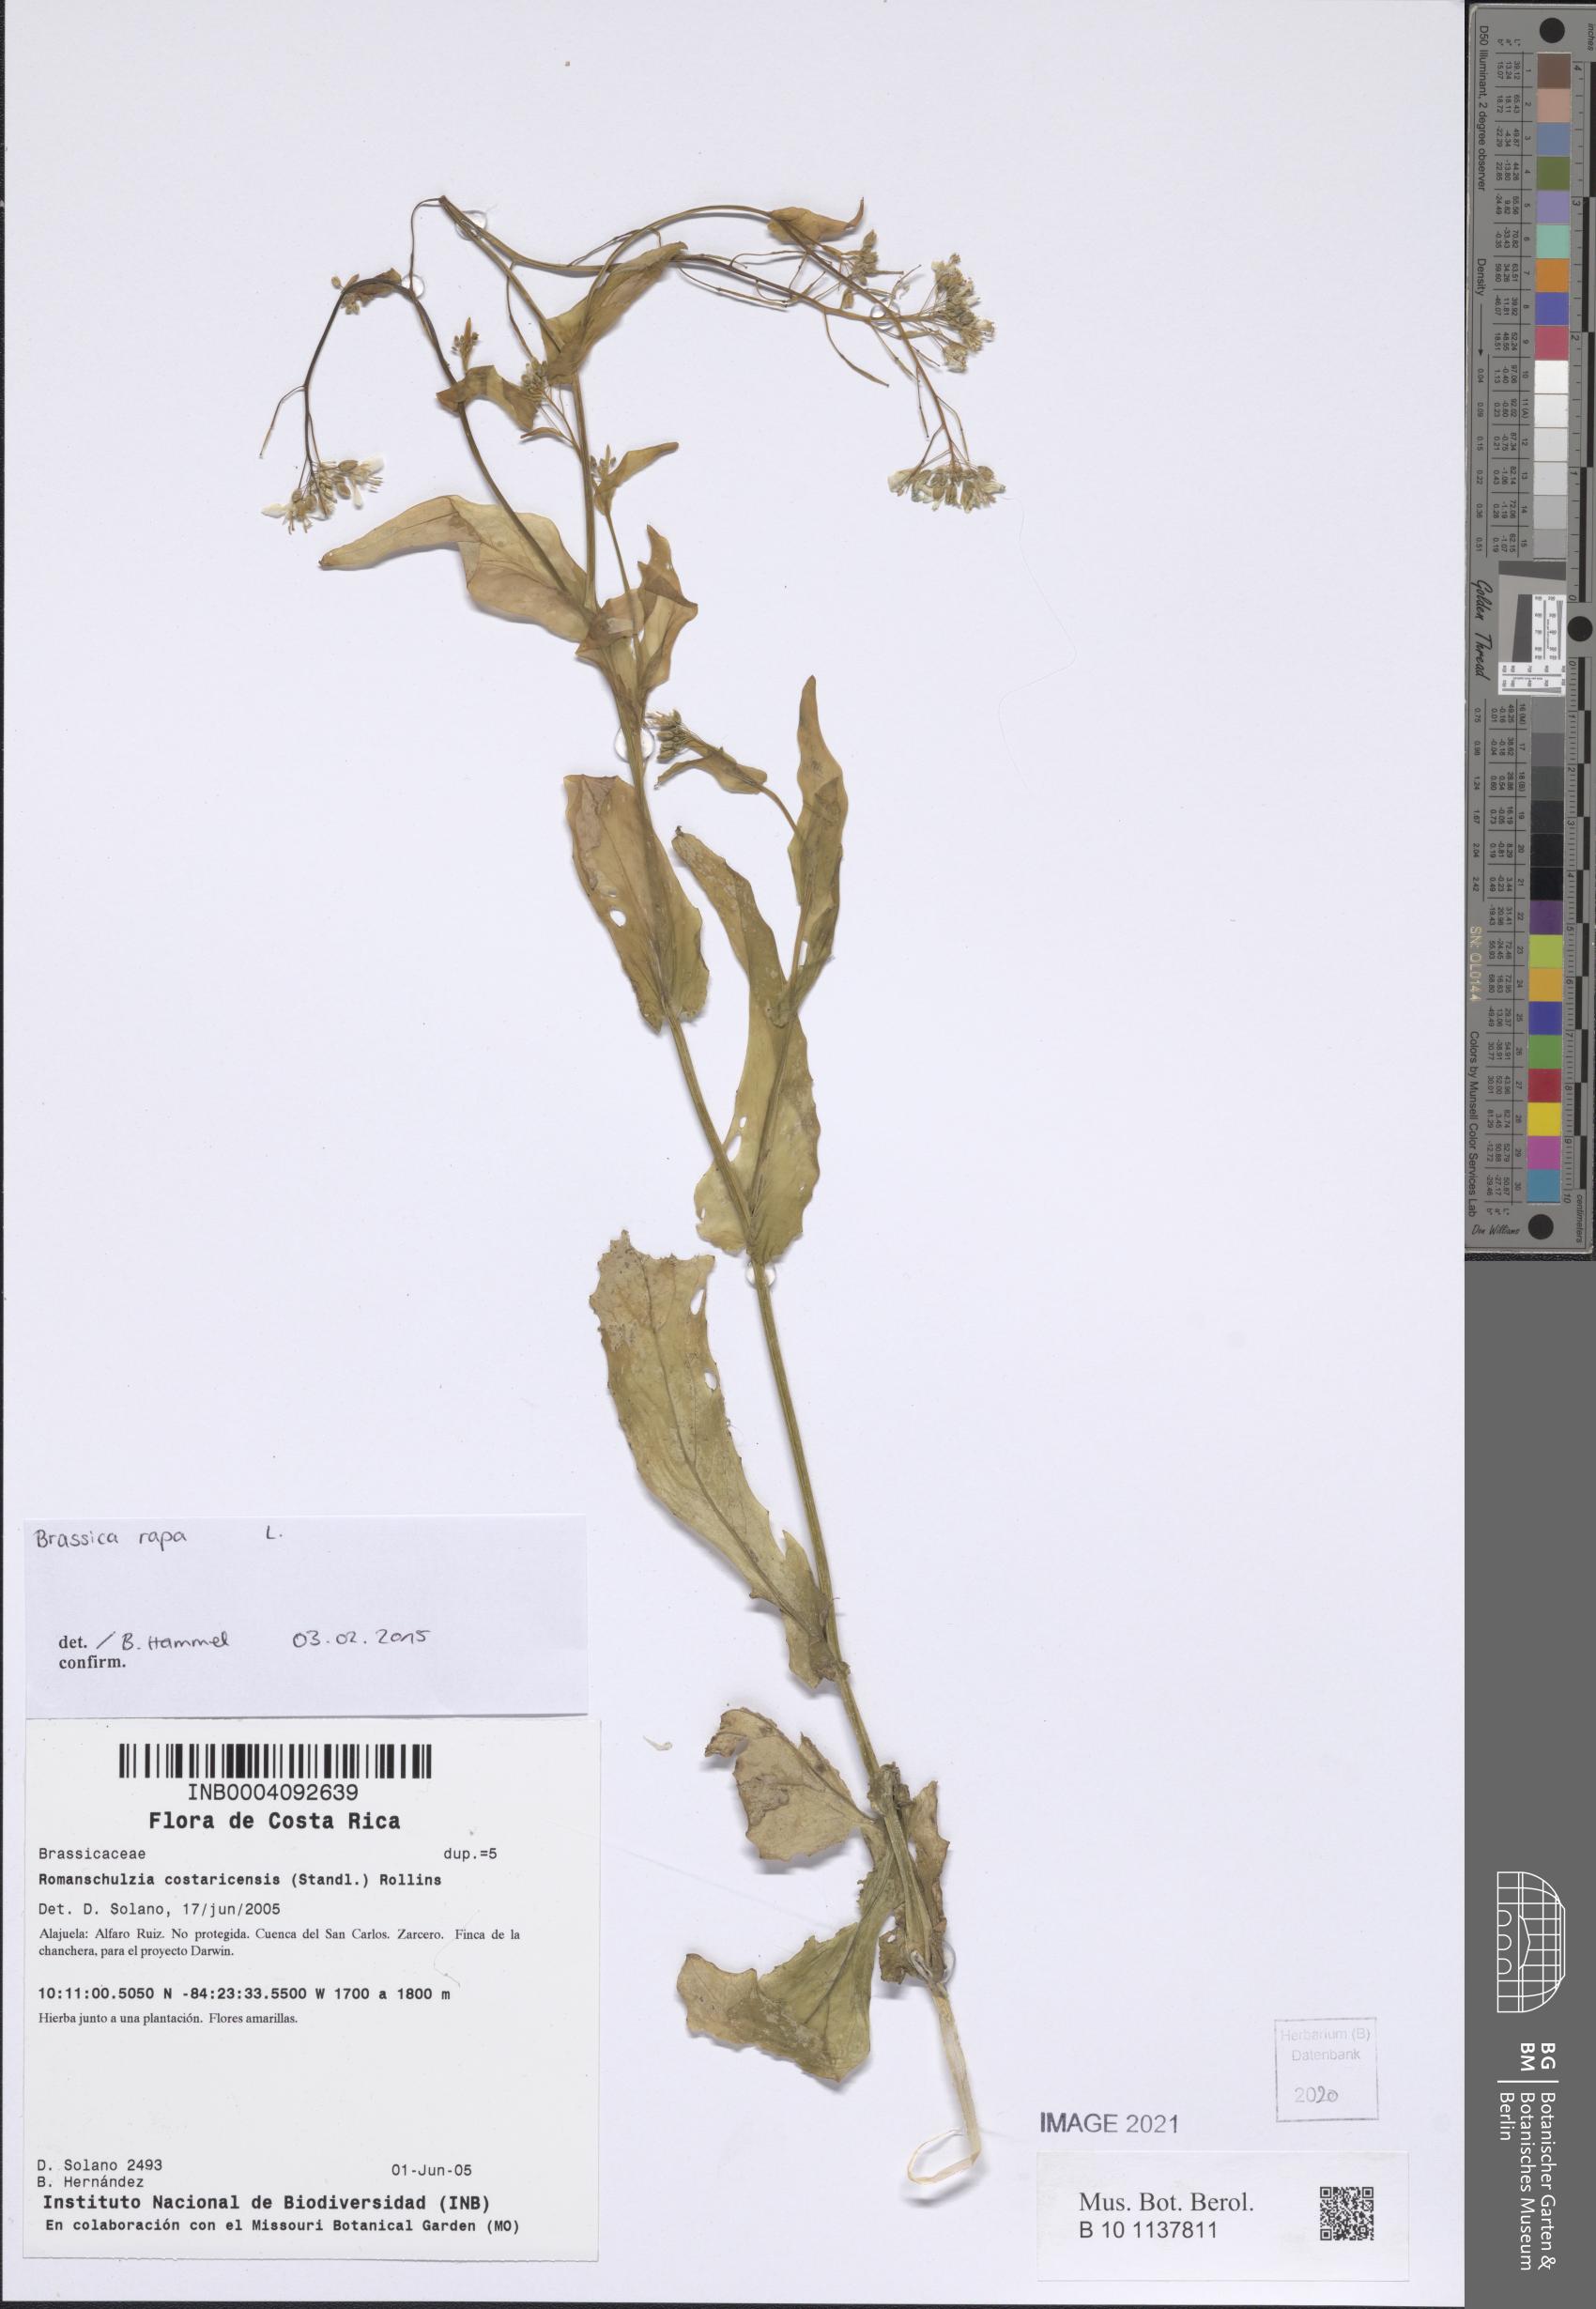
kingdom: Plantae
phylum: Tracheophyta
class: Magnoliopsida
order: Brassicales
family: Brassicaceae
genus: Brassica
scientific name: Brassica rapa
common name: Field mustard
